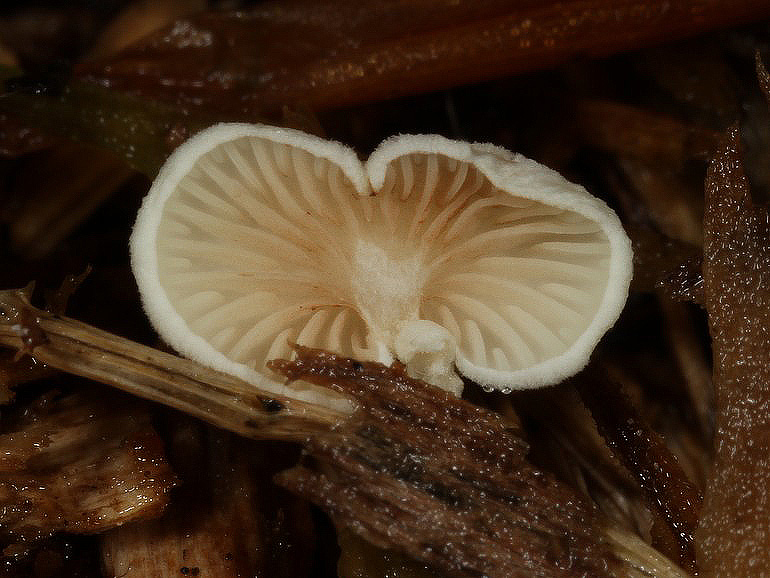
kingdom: Fungi
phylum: Basidiomycota
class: Agaricomycetes
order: Agaricales
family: Crepidotaceae
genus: Crepidotus
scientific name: Crepidotus luteolus
